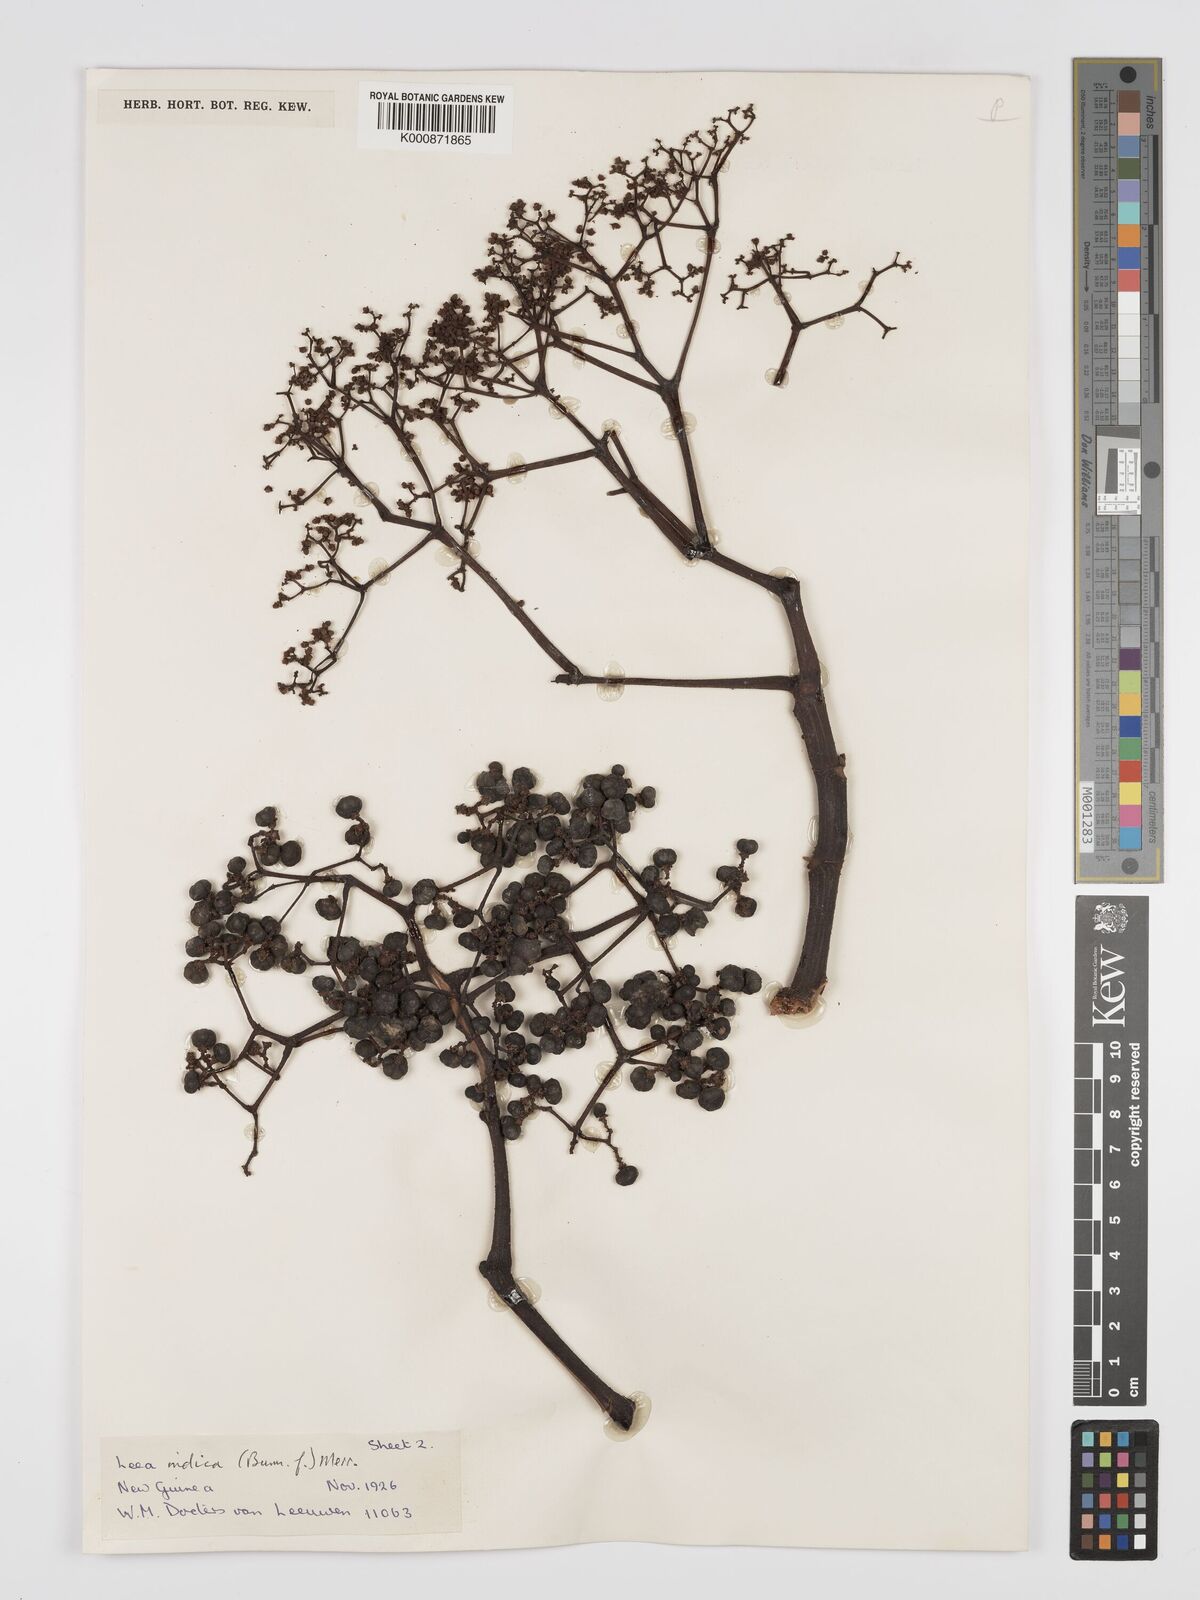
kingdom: Plantae
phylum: Tracheophyta
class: Magnoliopsida
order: Vitales
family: Vitaceae
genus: Leea
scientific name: Leea indica
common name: Bandicoot-berry
